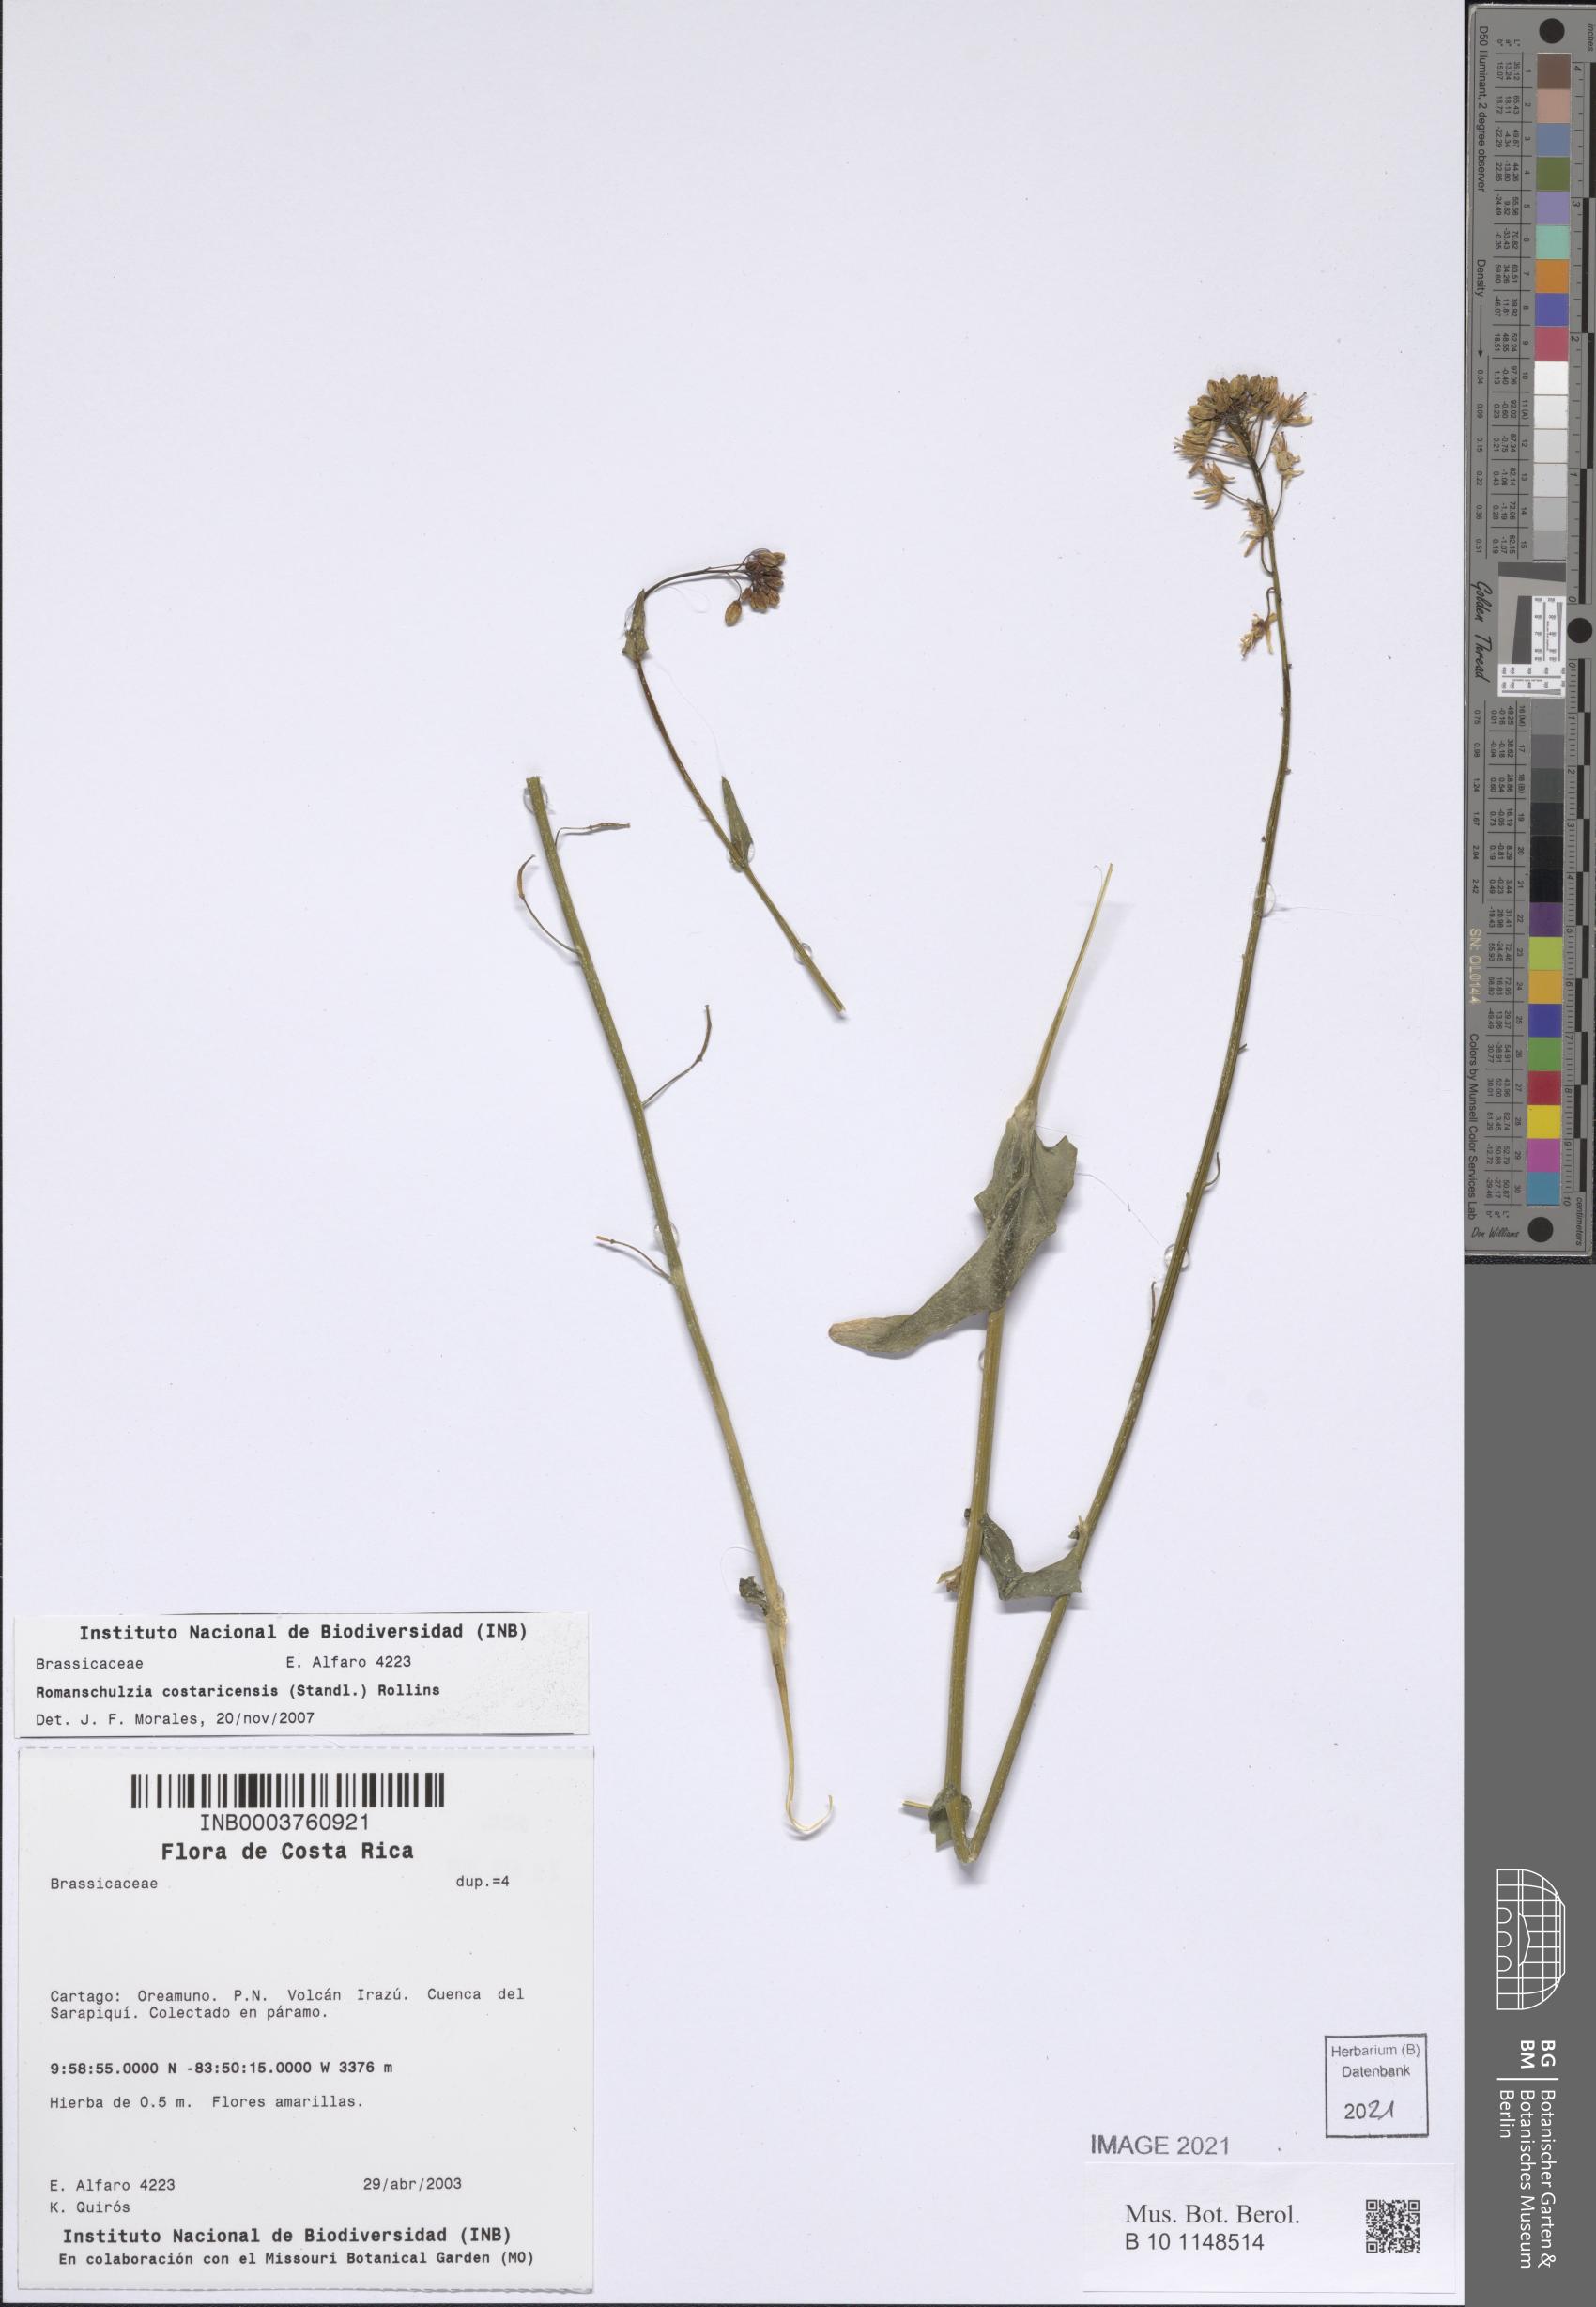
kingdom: Plantae
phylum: Tracheophyta
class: Magnoliopsida
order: Brassicales
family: Brassicaceae
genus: Brassica
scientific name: Brassica napus
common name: Rape
